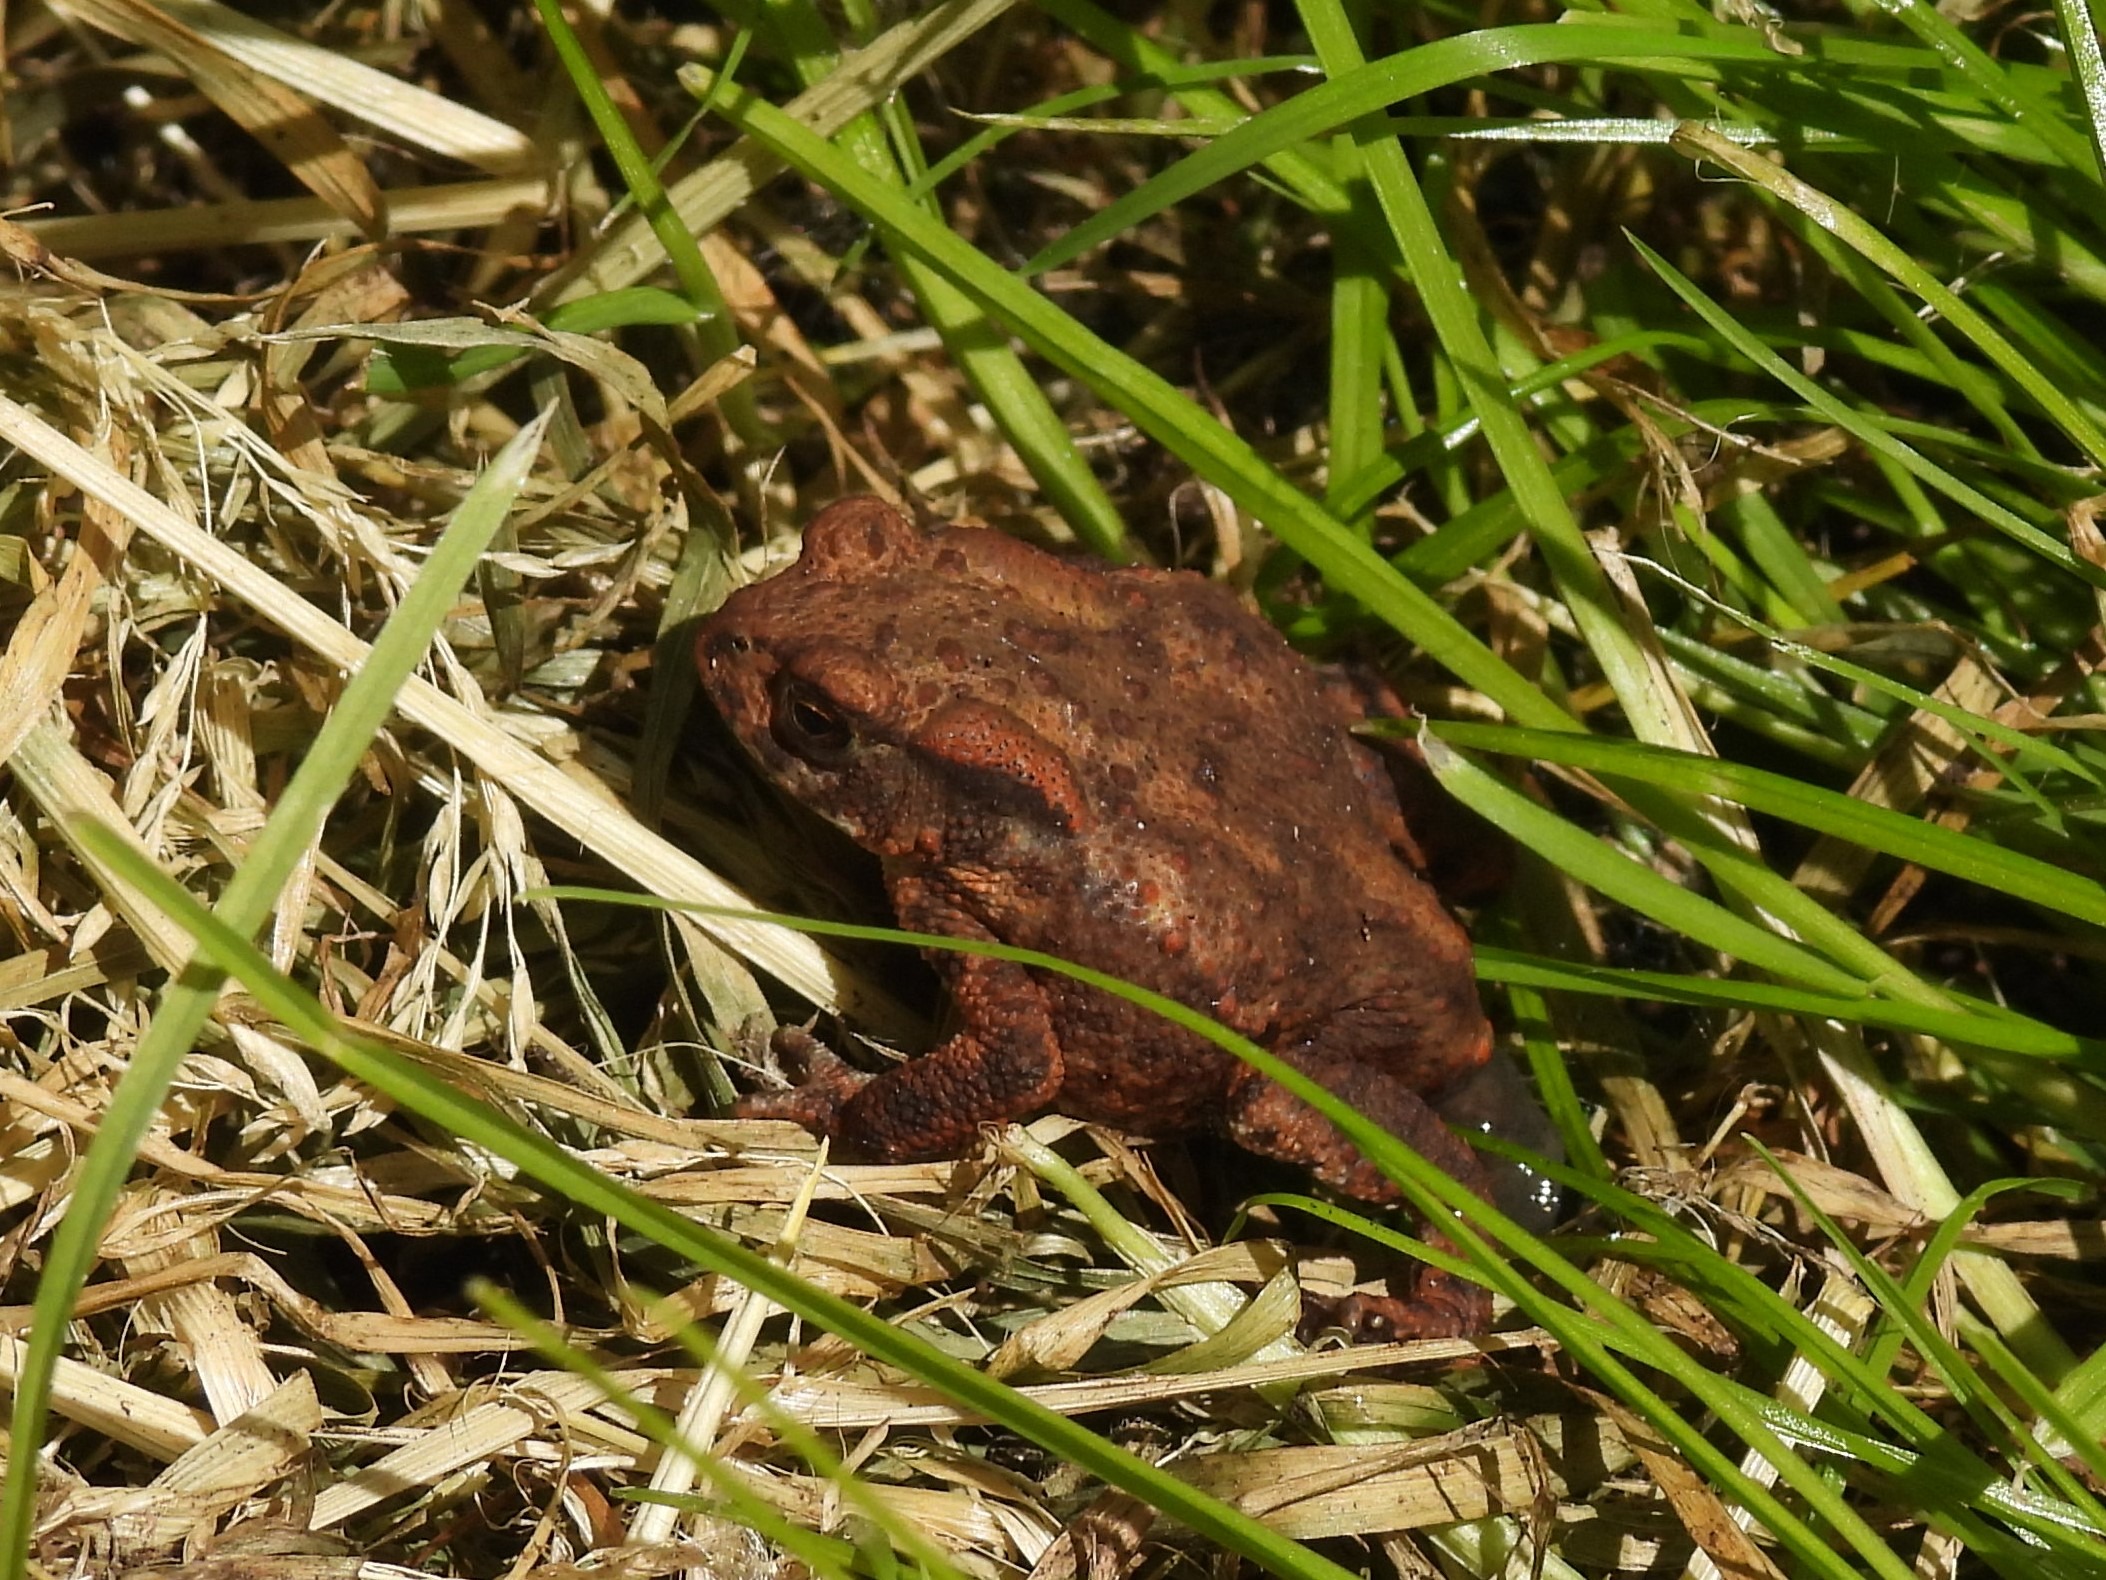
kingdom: Animalia
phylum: Chordata
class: Amphibia
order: Anura
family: Bufonidae
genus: Bufo
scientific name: Bufo bufo
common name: Skrubtudse
